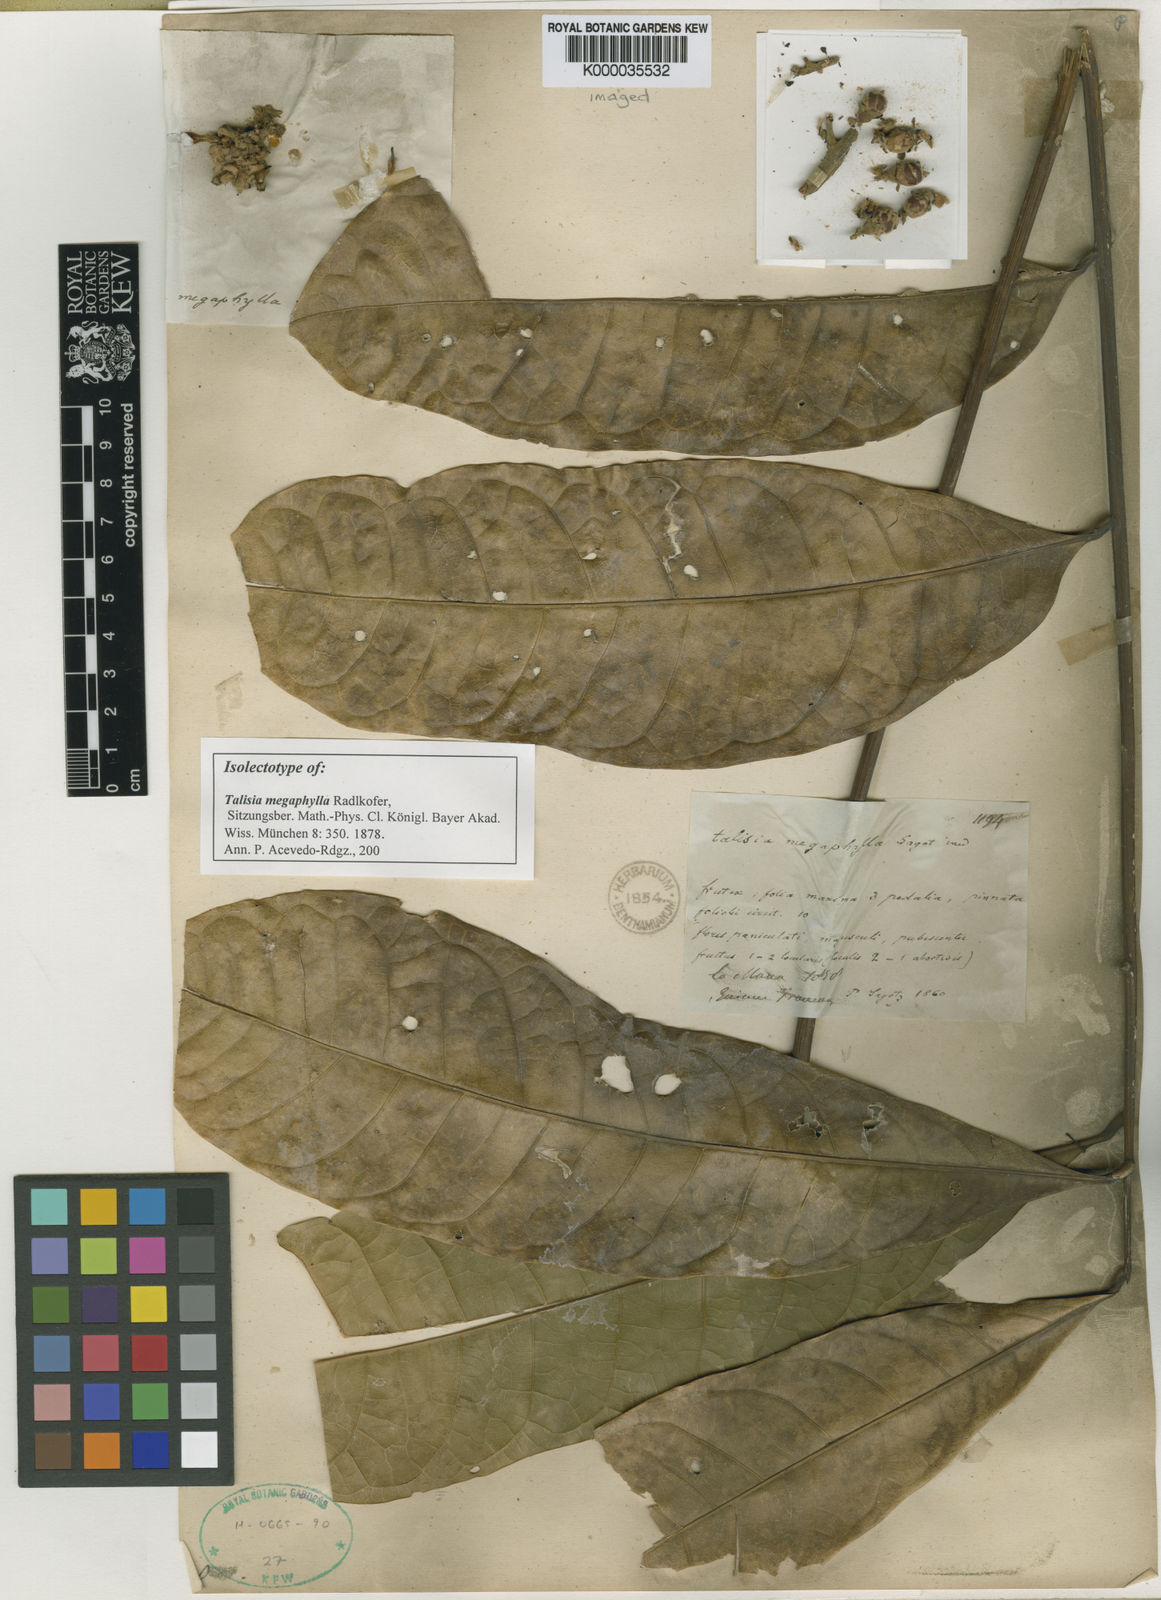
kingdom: Plantae
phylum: Tracheophyta
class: Magnoliopsida
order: Sapindales
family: Sapindaceae
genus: Talisia
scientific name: Talisia
